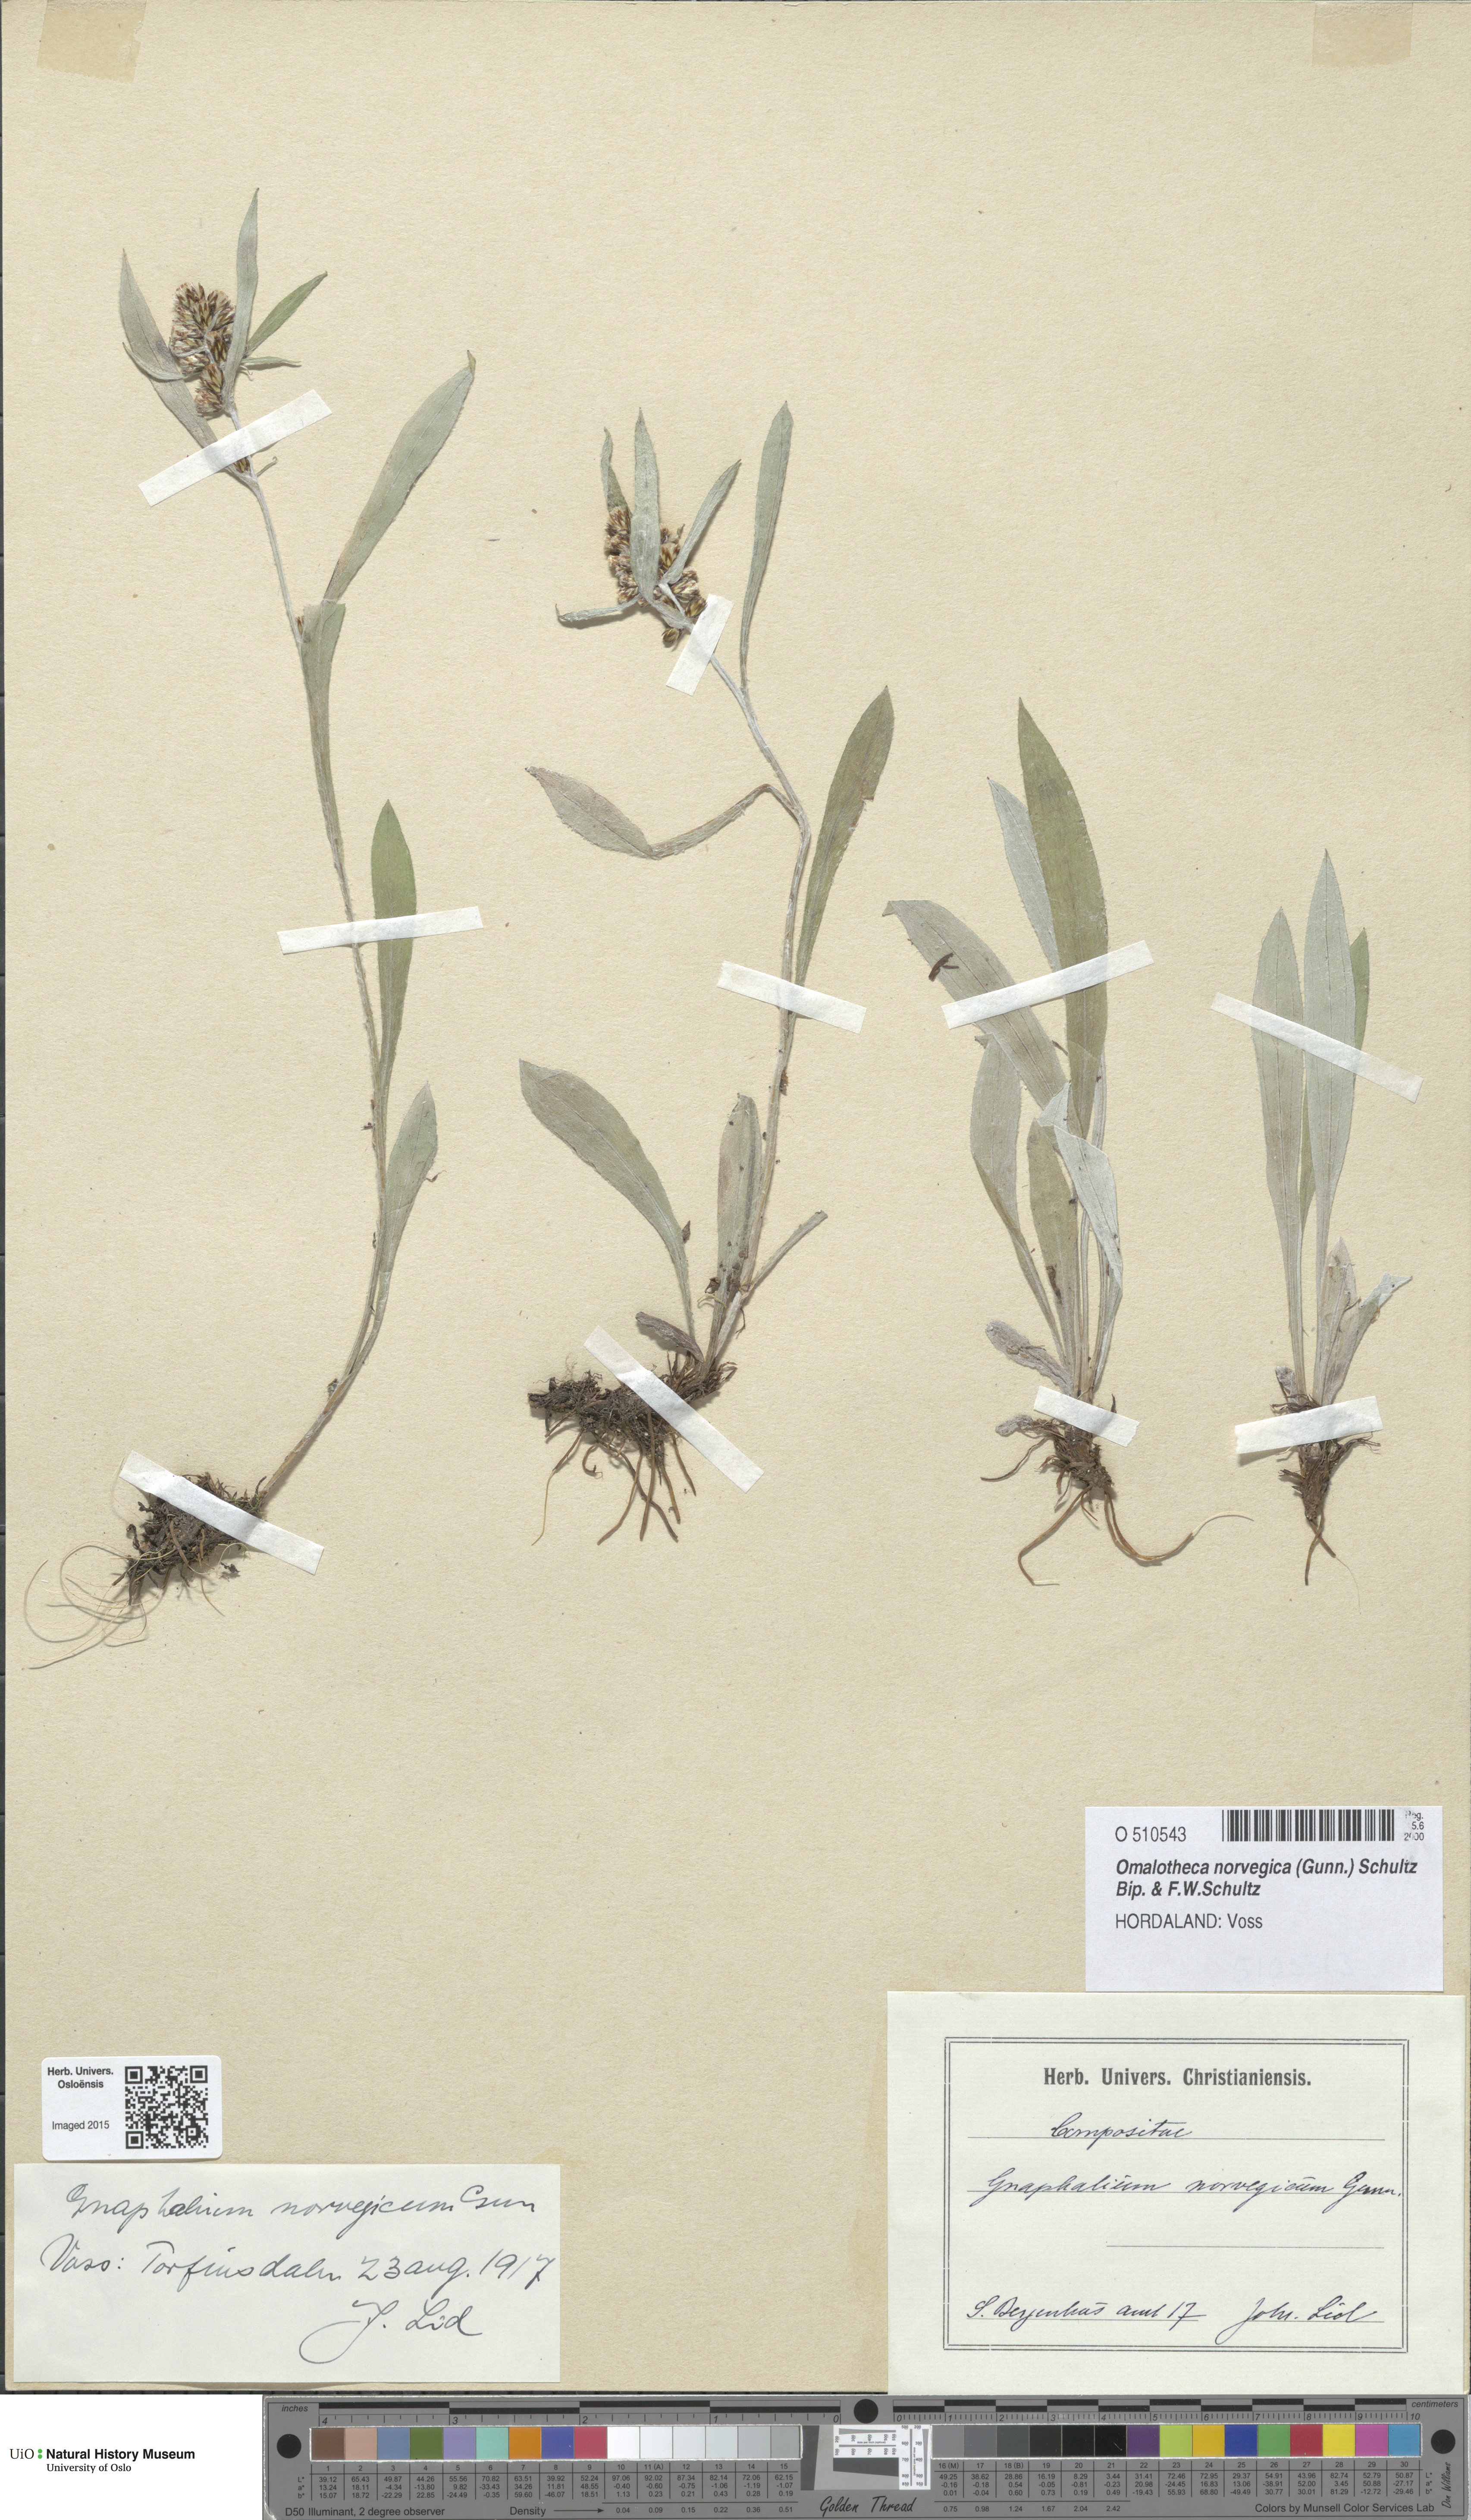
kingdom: Plantae
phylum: Tracheophyta
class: Magnoliopsida
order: Asterales
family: Asteraceae
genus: Omalotheca
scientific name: Omalotheca norvegica
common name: Norwegian arctic-cudweed
